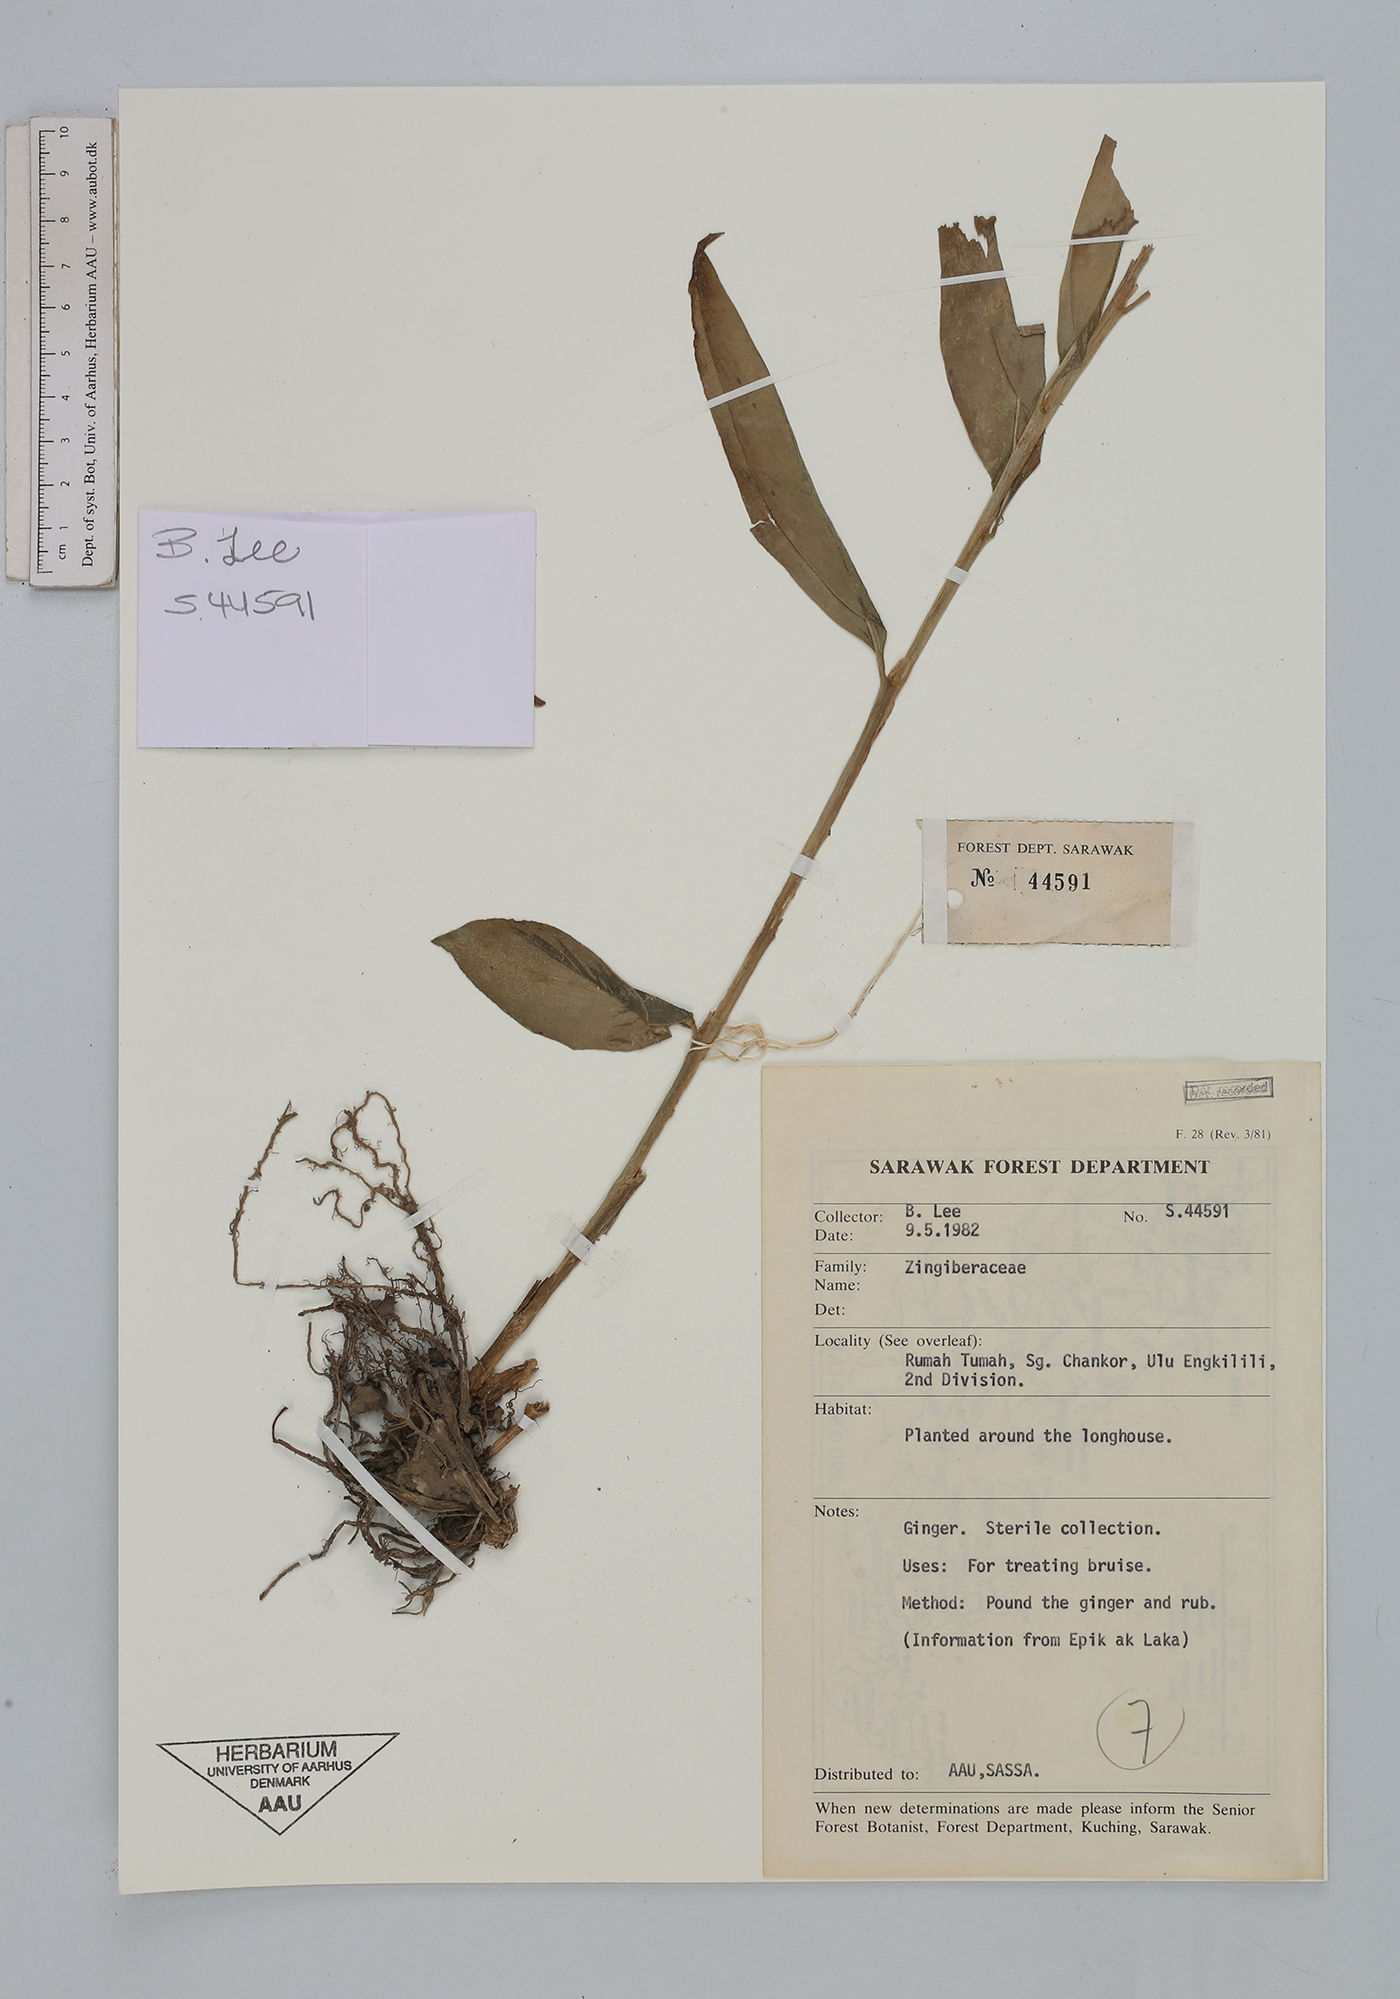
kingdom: Plantae
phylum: Tracheophyta
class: Liliopsida
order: Zingiberales
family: Zingiberaceae
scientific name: Zingiberaceae
